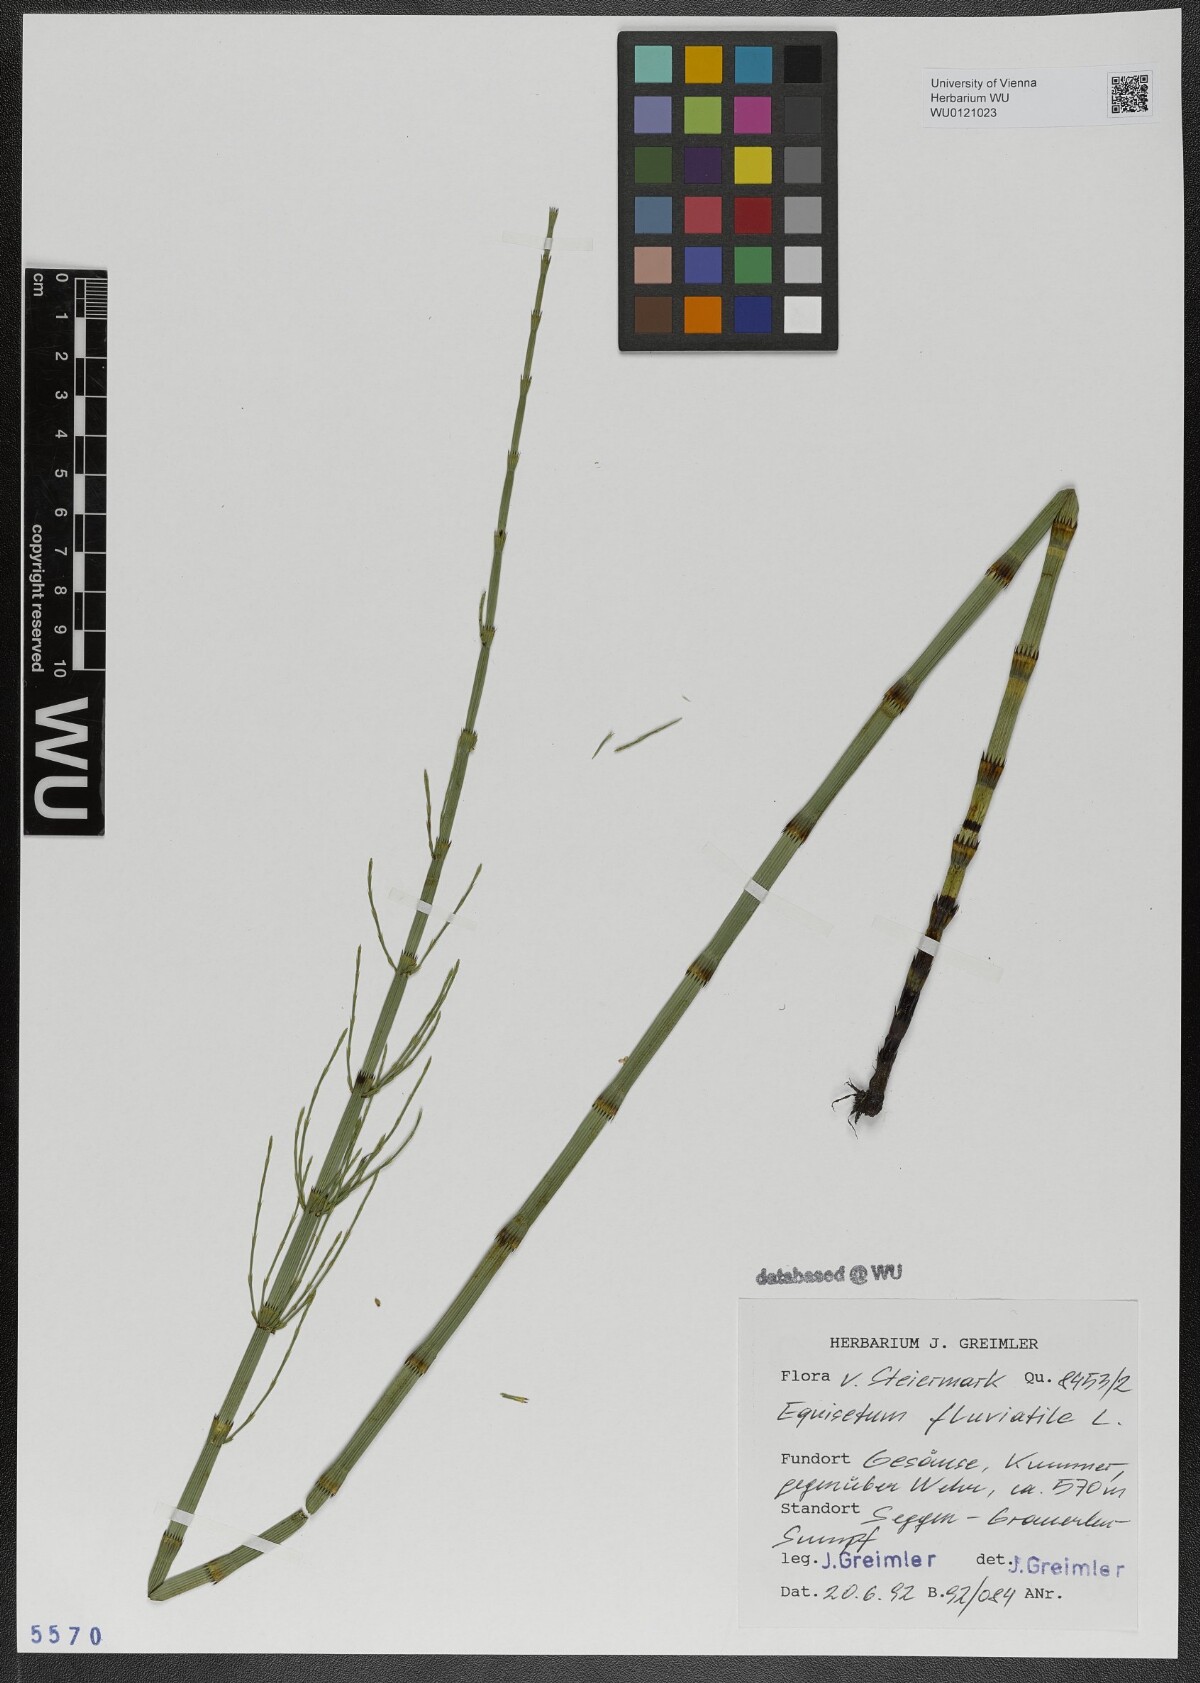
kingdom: Plantae
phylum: Tracheophyta
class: Polypodiopsida
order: Equisetales
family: Equisetaceae
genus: Equisetum
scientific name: Equisetum fluviatile
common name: Water horsetail
